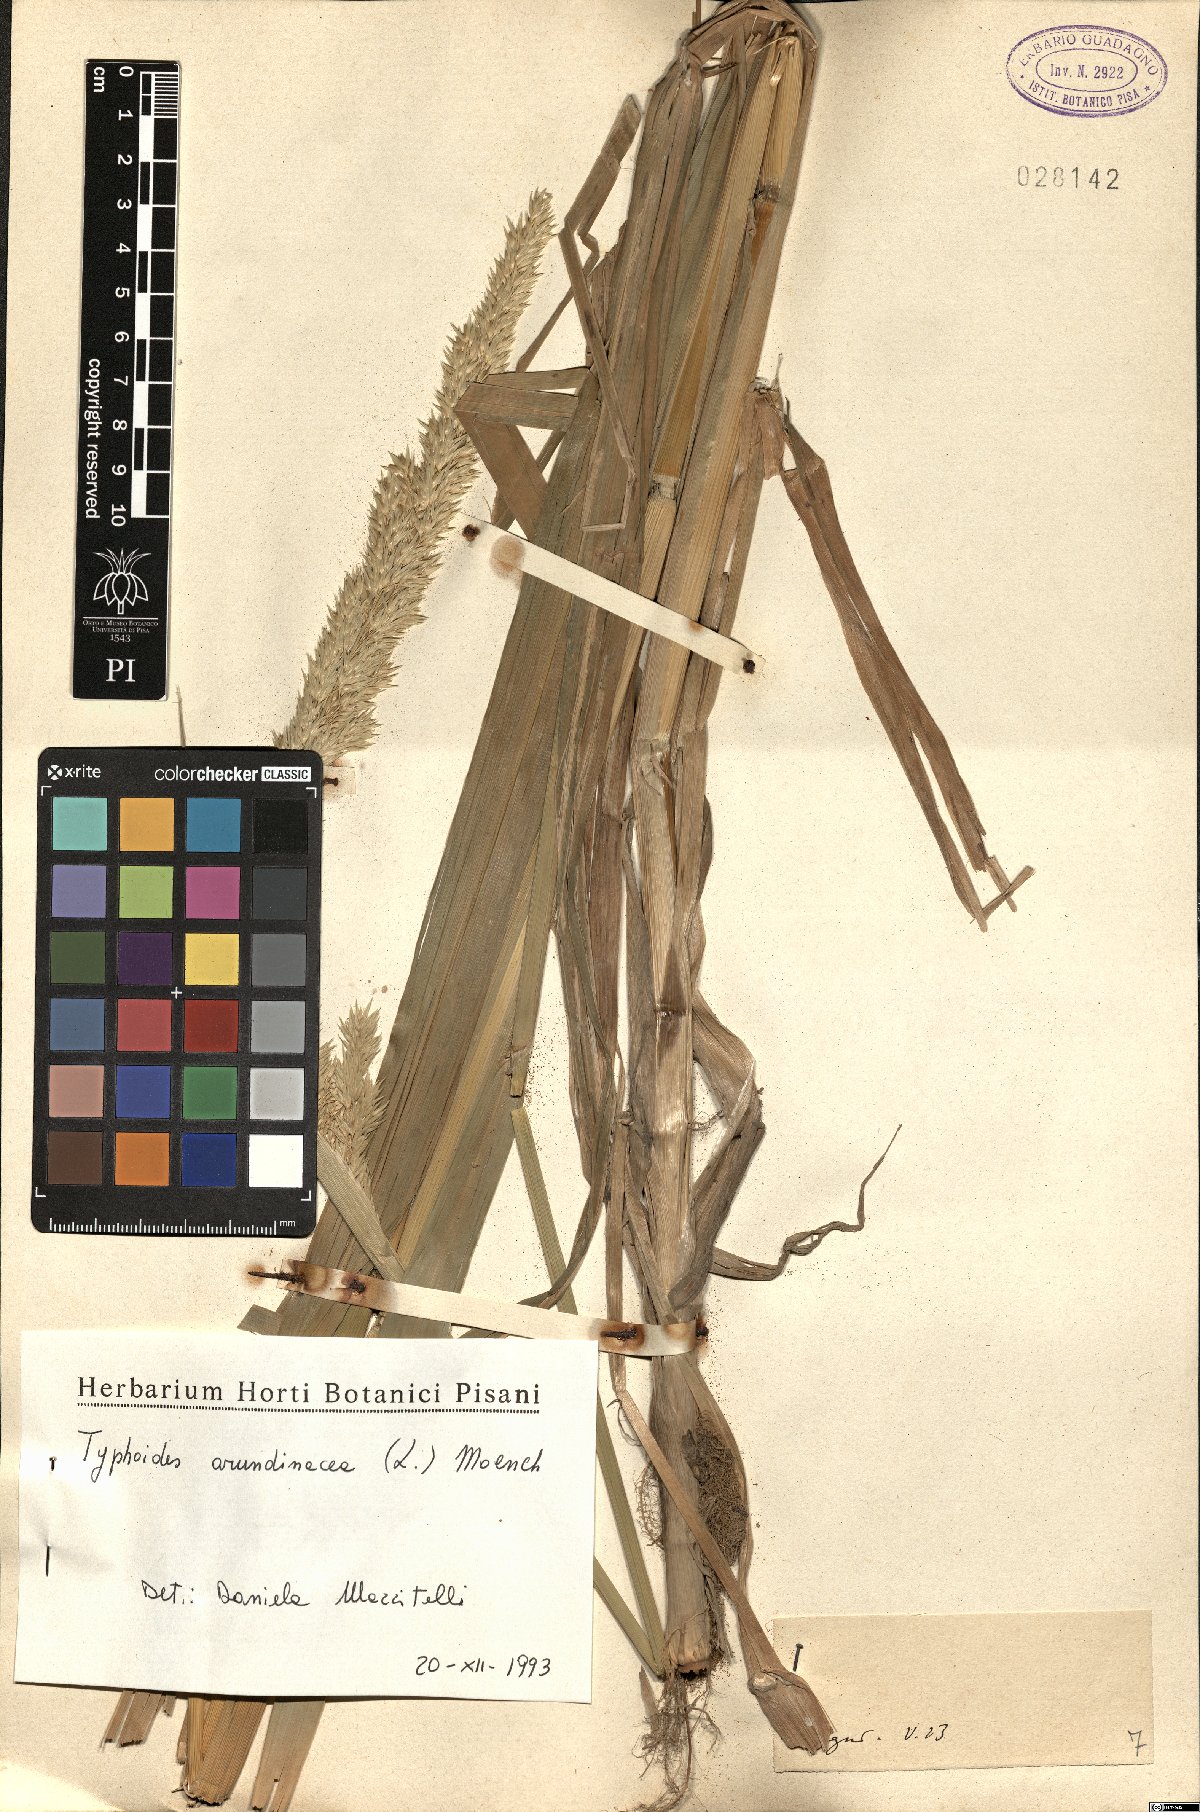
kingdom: Plantae
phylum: Tracheophyta
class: Liliopsida
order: Poales
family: Poaceae
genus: Phalaris
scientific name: Phalaris arundinacea
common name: Reed canary-grass
